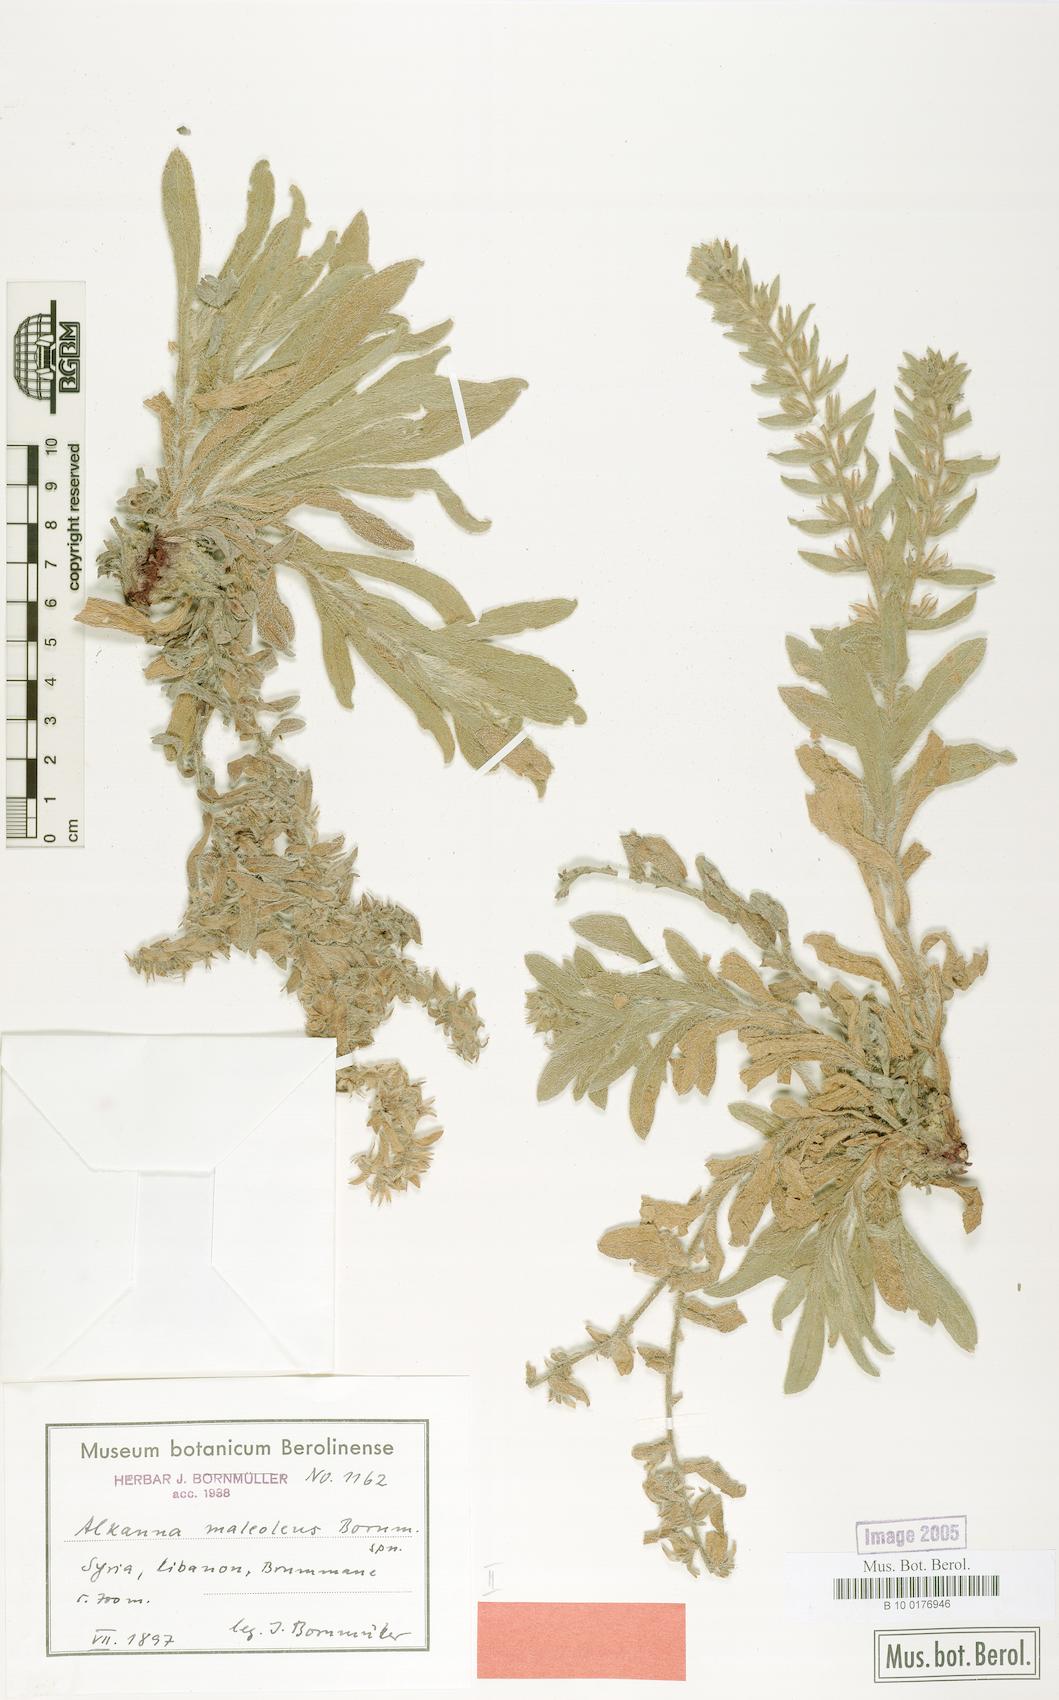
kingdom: Plantae
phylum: Tracheophyta
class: Magnoliopsida
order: Boraginales
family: Boraginaceae
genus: Alkanna
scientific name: Alkanna maleolens
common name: Bad-smelling alkanet
